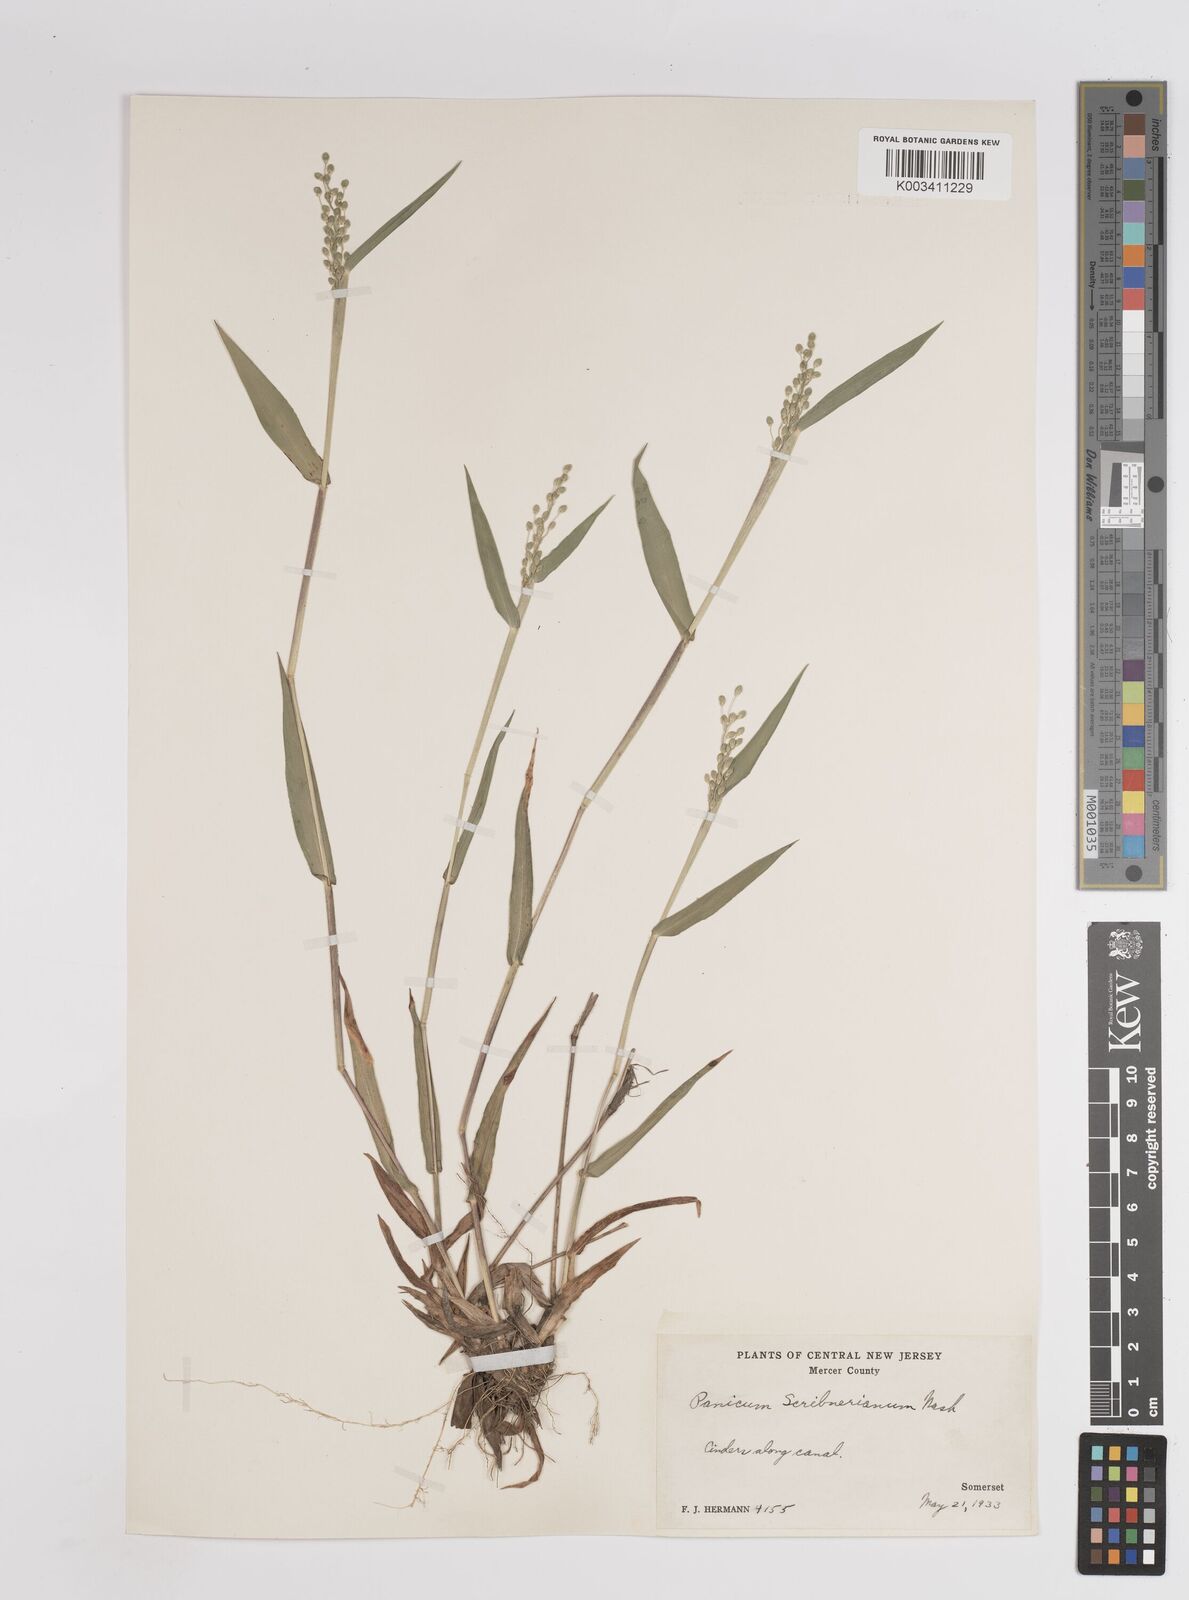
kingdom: Plantae
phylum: Tracheophyta
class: Liliopsida
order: Poales
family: Poaceae
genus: Dichanthelium
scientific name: Dichanthelium scribnerianum
